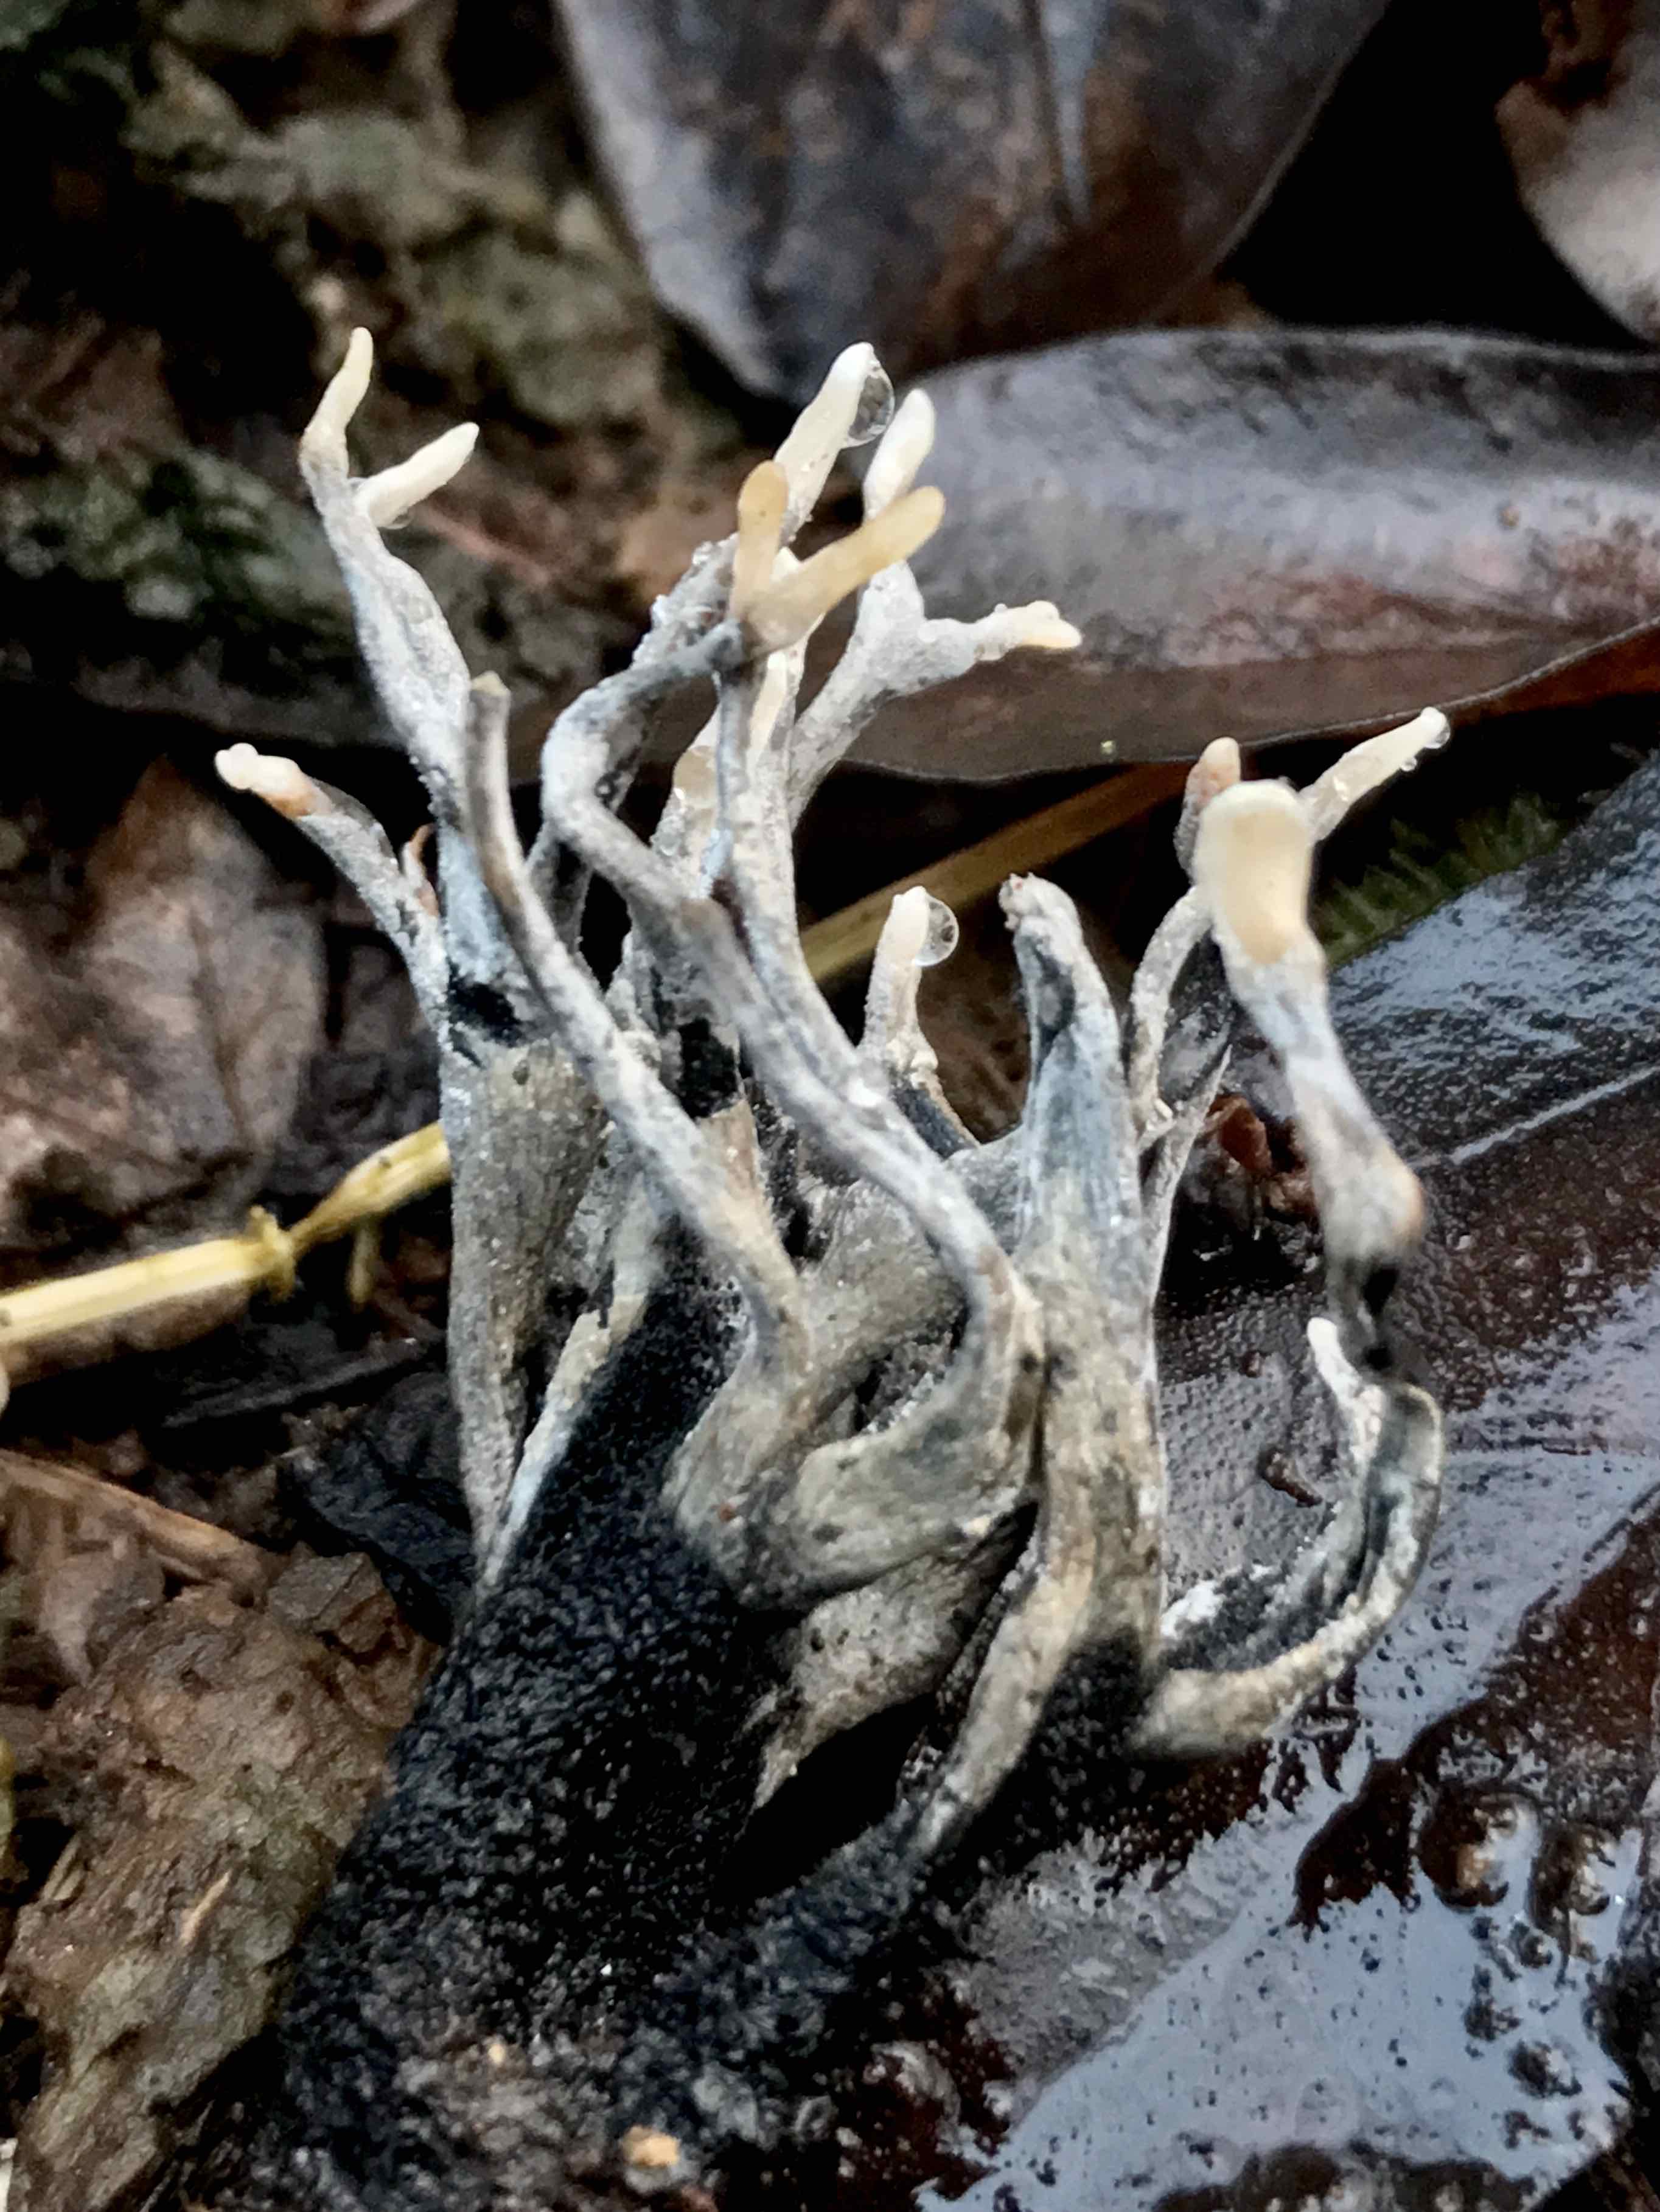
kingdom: Fungi
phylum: Ascomycota
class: Sordariomycetes
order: Xylariales
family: Xylariaceae
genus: Xylaria
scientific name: Xylaria hypoxylon
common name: grenet stødsvamp
